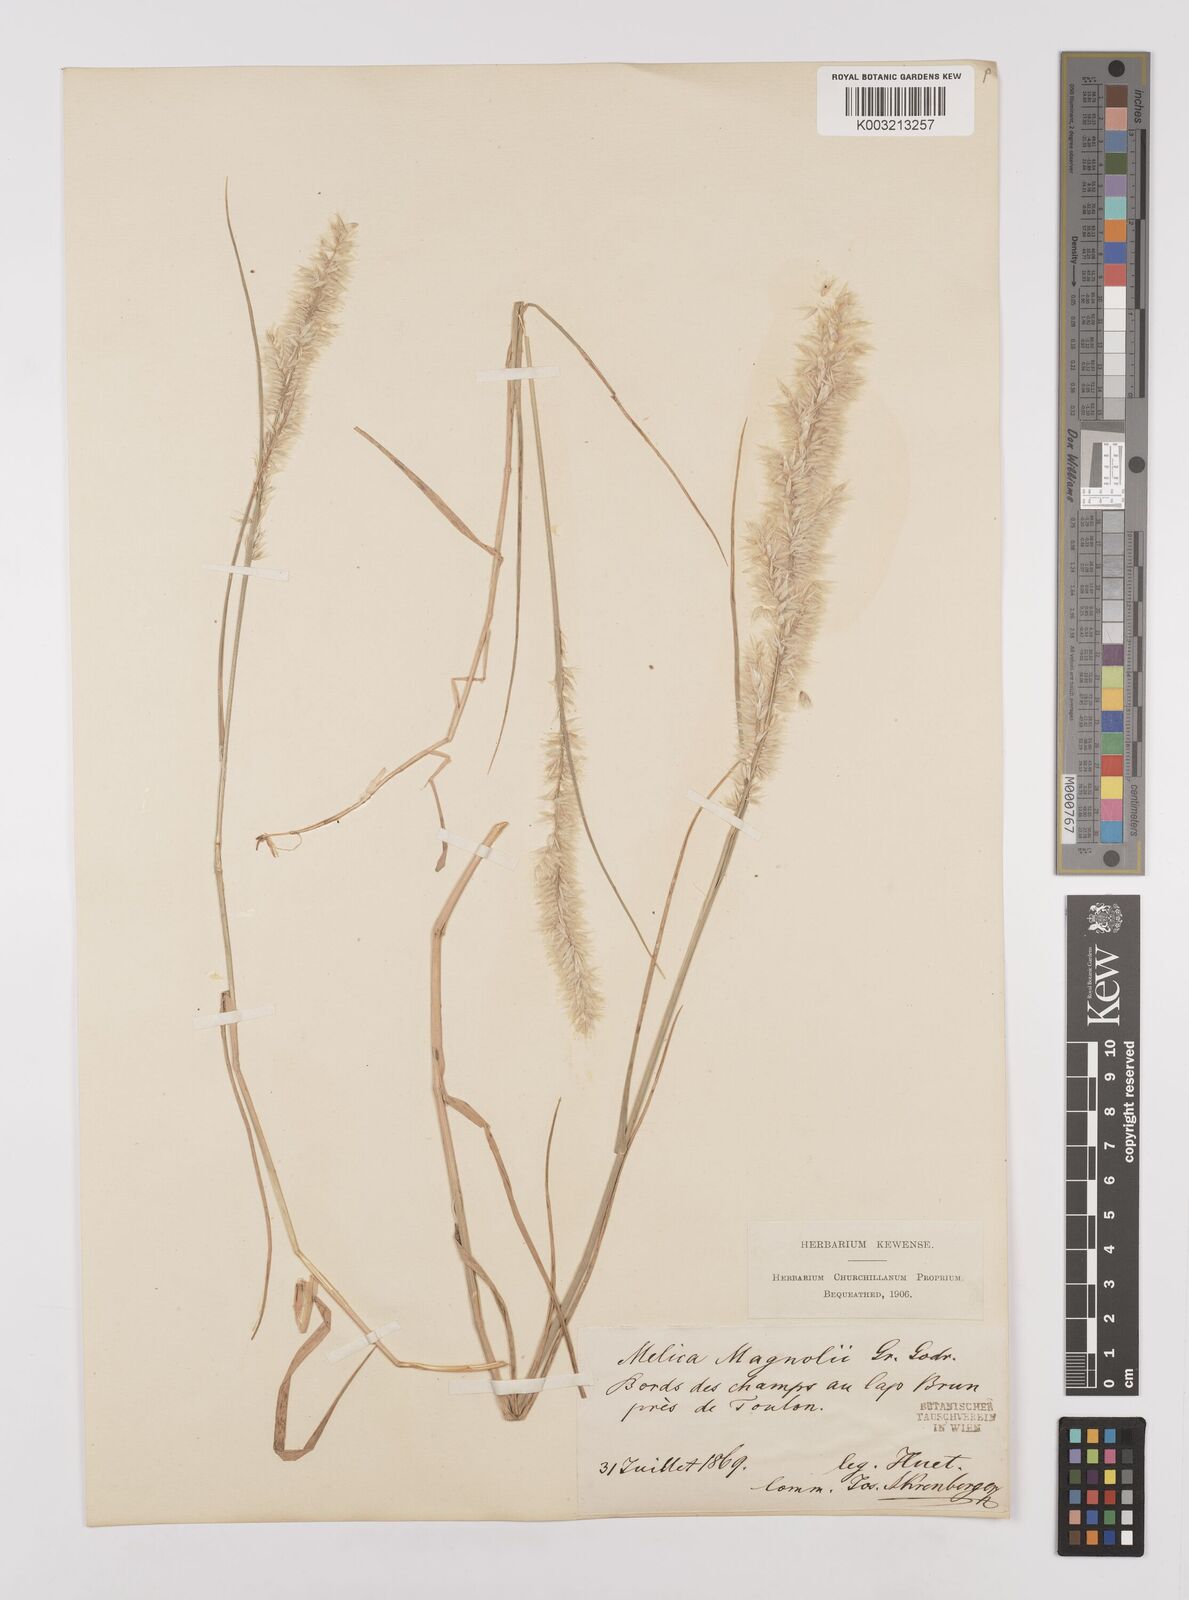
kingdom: Plantae
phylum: Tracheophyta
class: Liliopsida
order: Poales
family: Poaceae
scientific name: Poaceae
